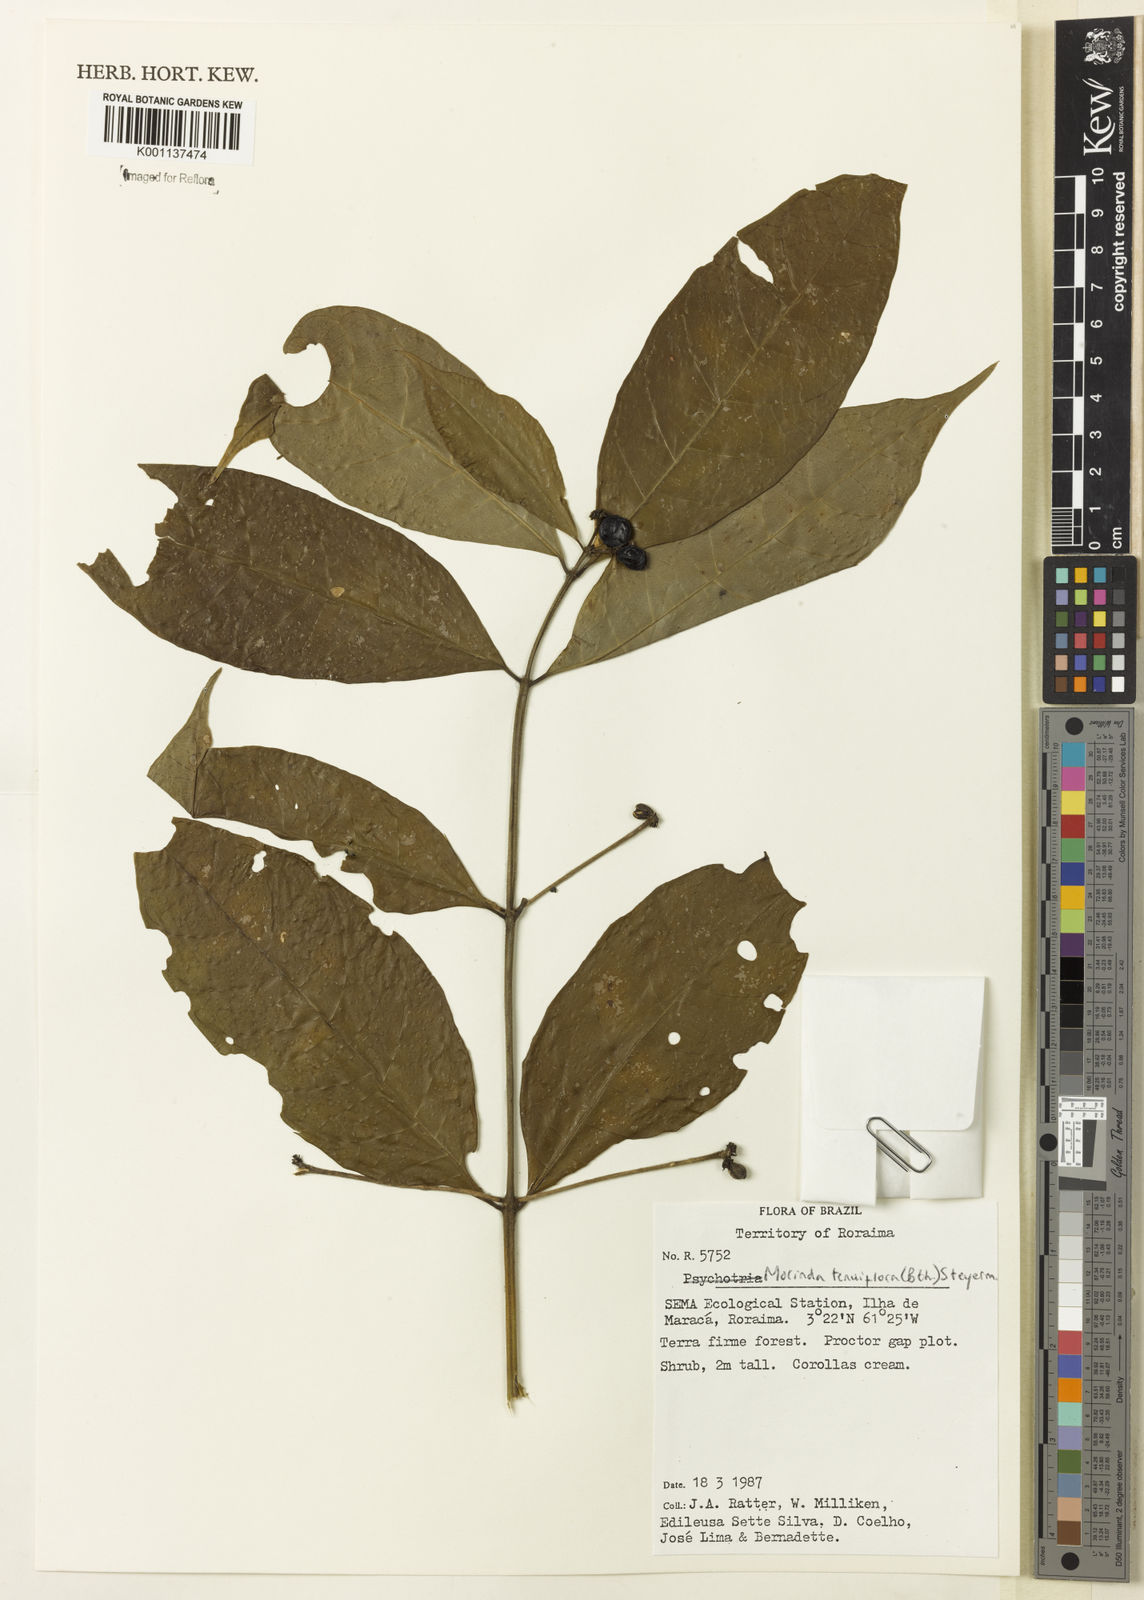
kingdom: Plantae
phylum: Tracheophyta
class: Magnoliopsida
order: Gentianales
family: Rubiaceae
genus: Appunia
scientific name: Appunia tenuiflora
